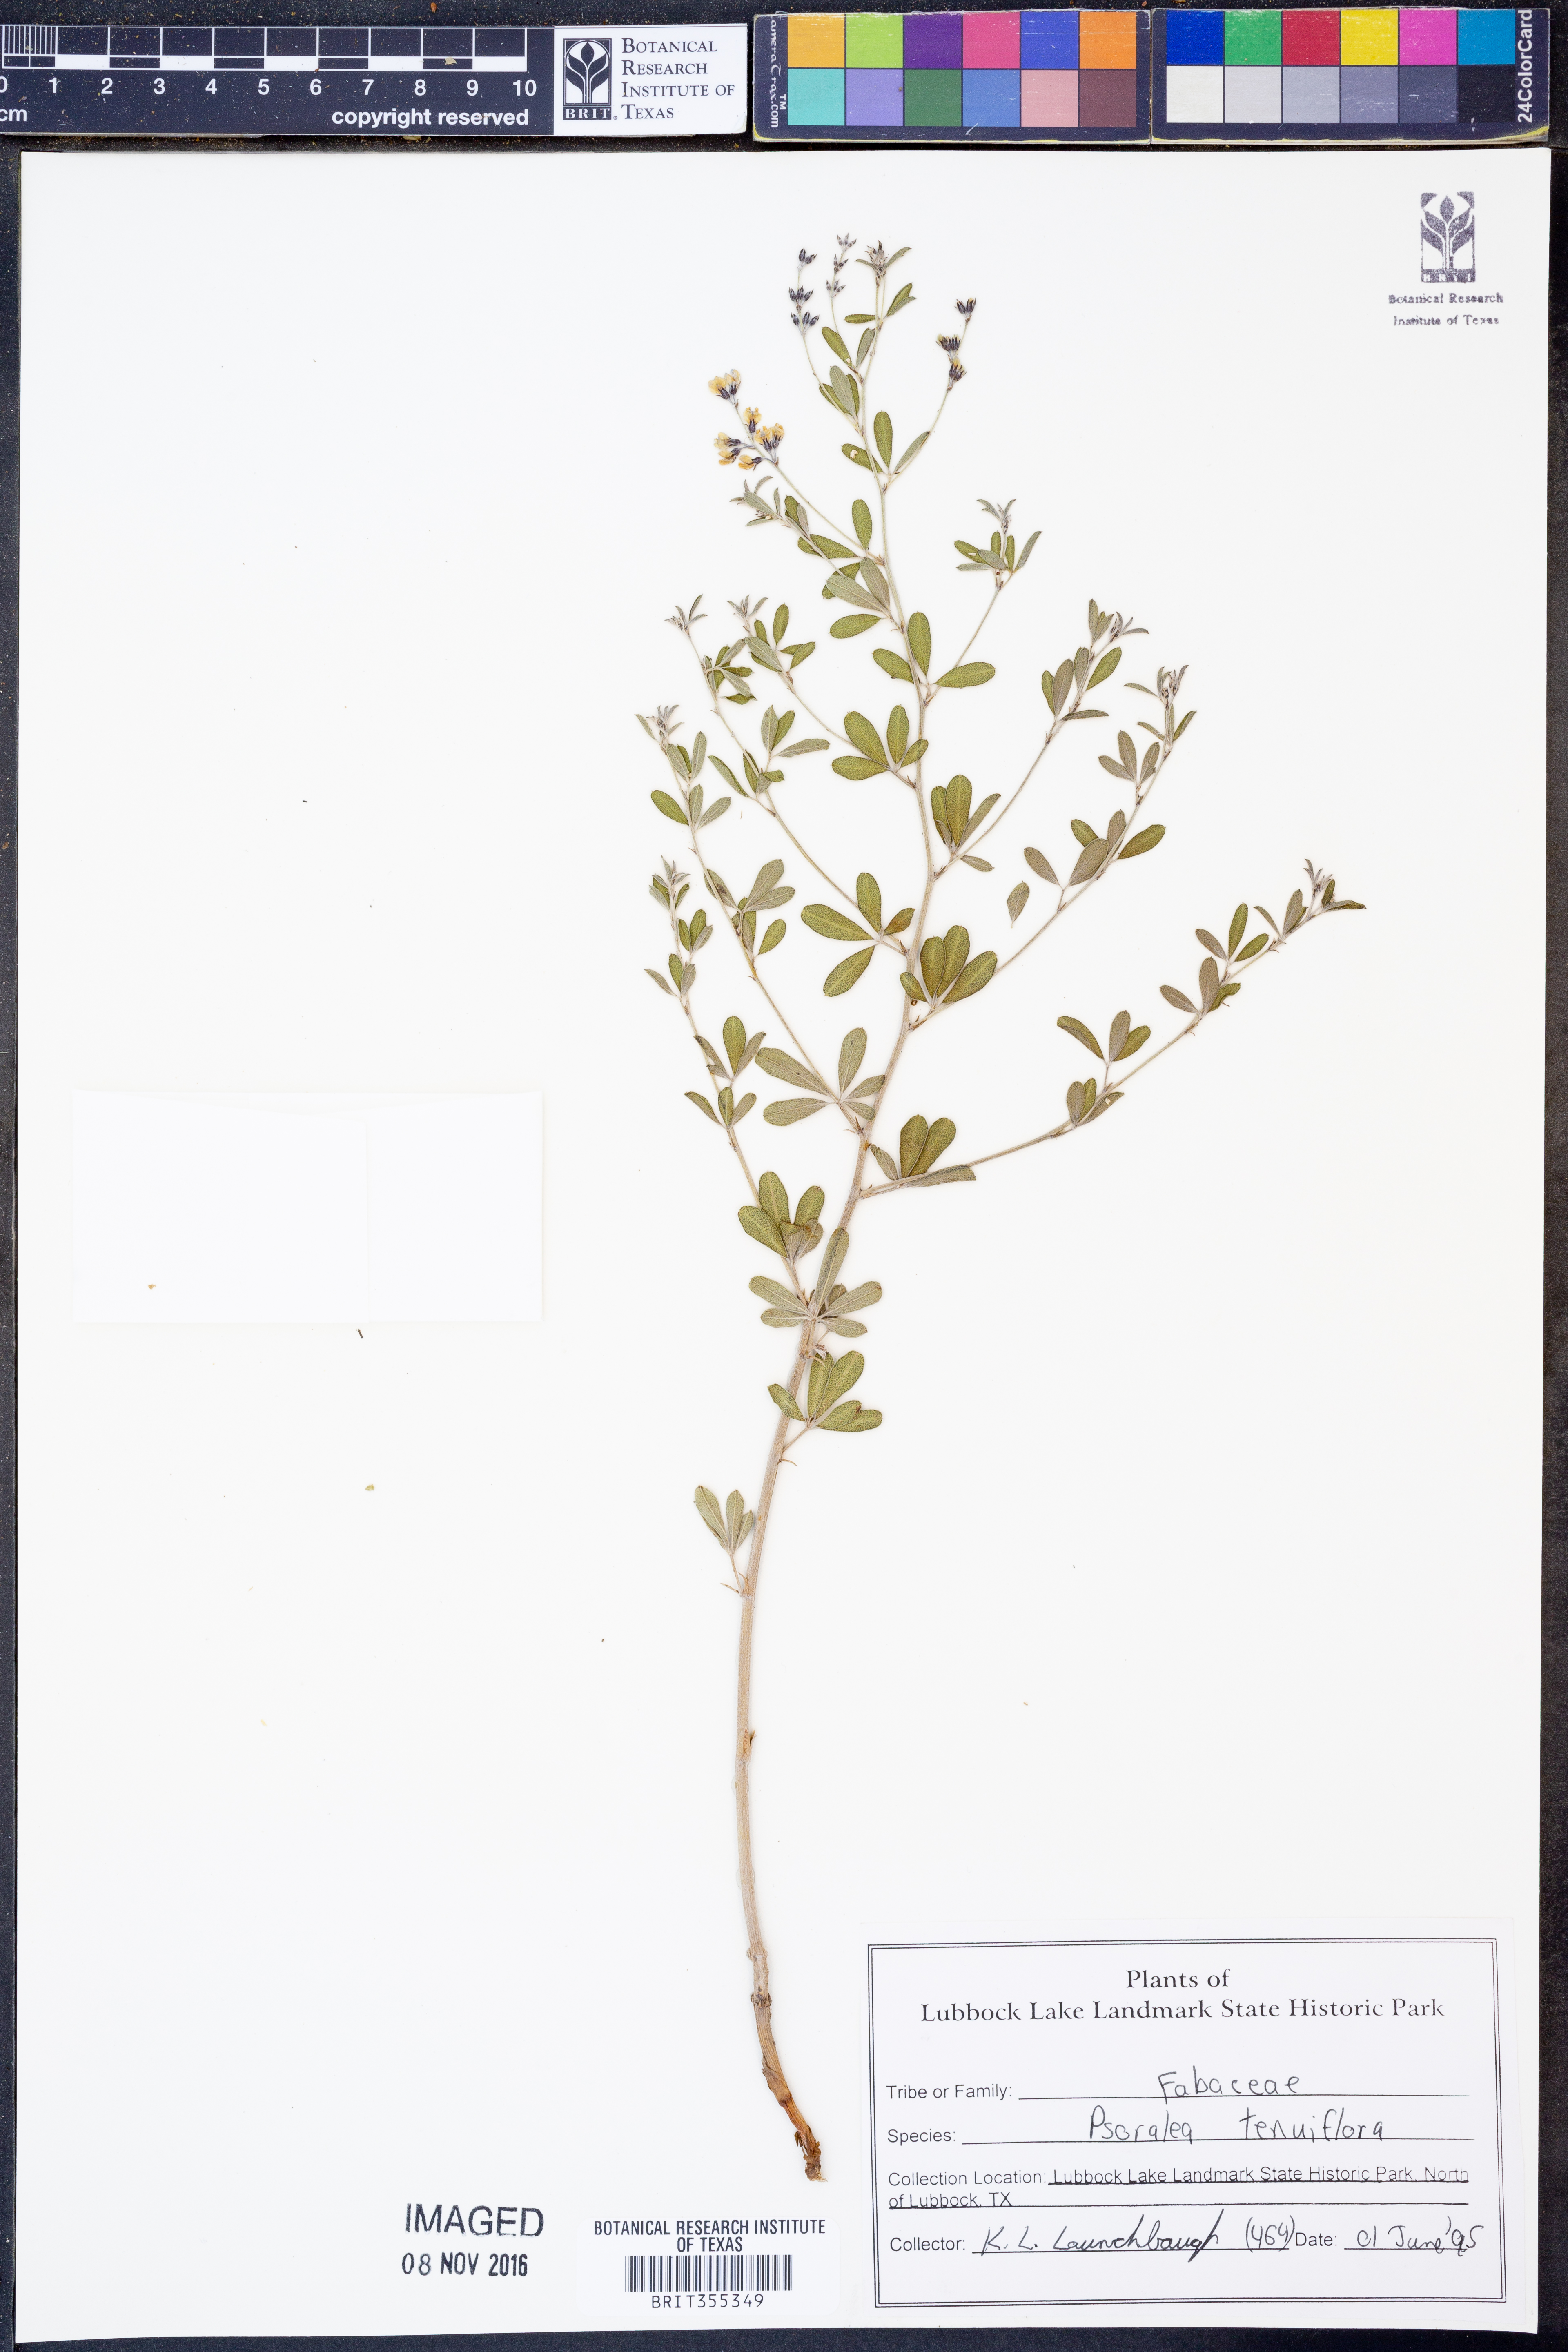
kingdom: Plantae
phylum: Tracheophyta
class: Magnoliopsida
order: Fabales
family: Fabaceae
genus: Pediomelum
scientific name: Pediomelum tenuiflorum
